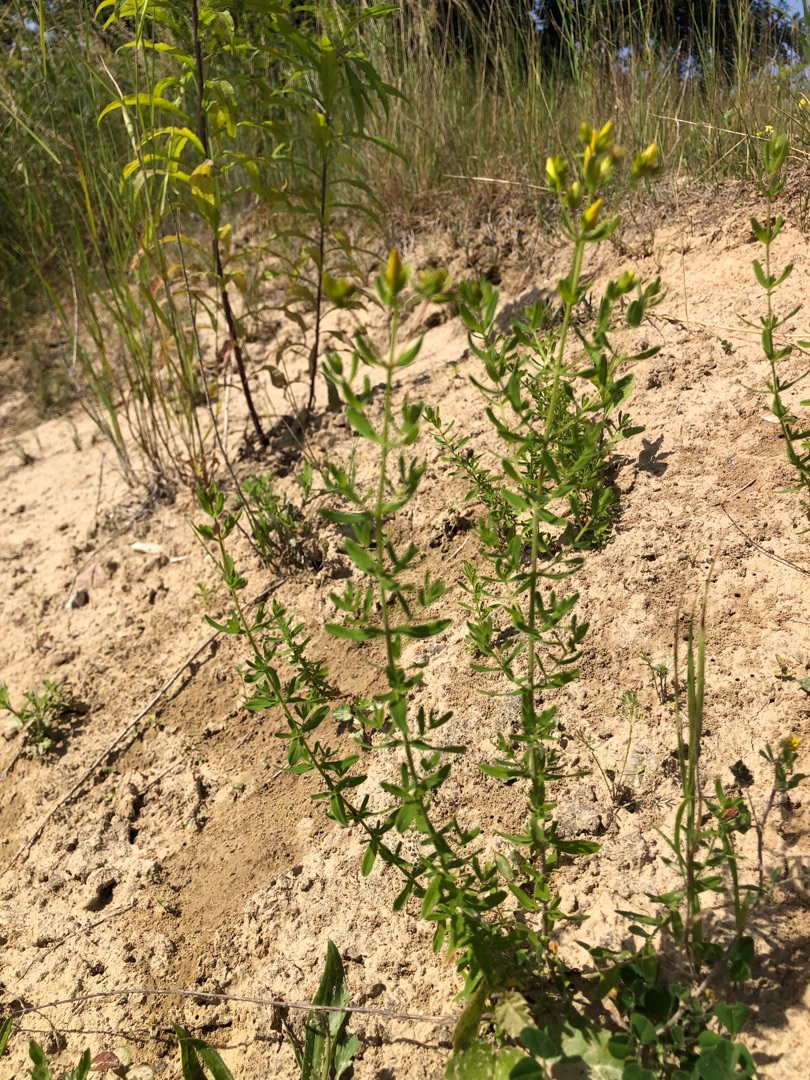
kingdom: Plantae
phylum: Tracheophyta
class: Magnoliopsida
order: Malpighiales
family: Hypericaceae
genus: Hypericum
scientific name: Hypericum perforatum
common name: Prikbladet perikon
